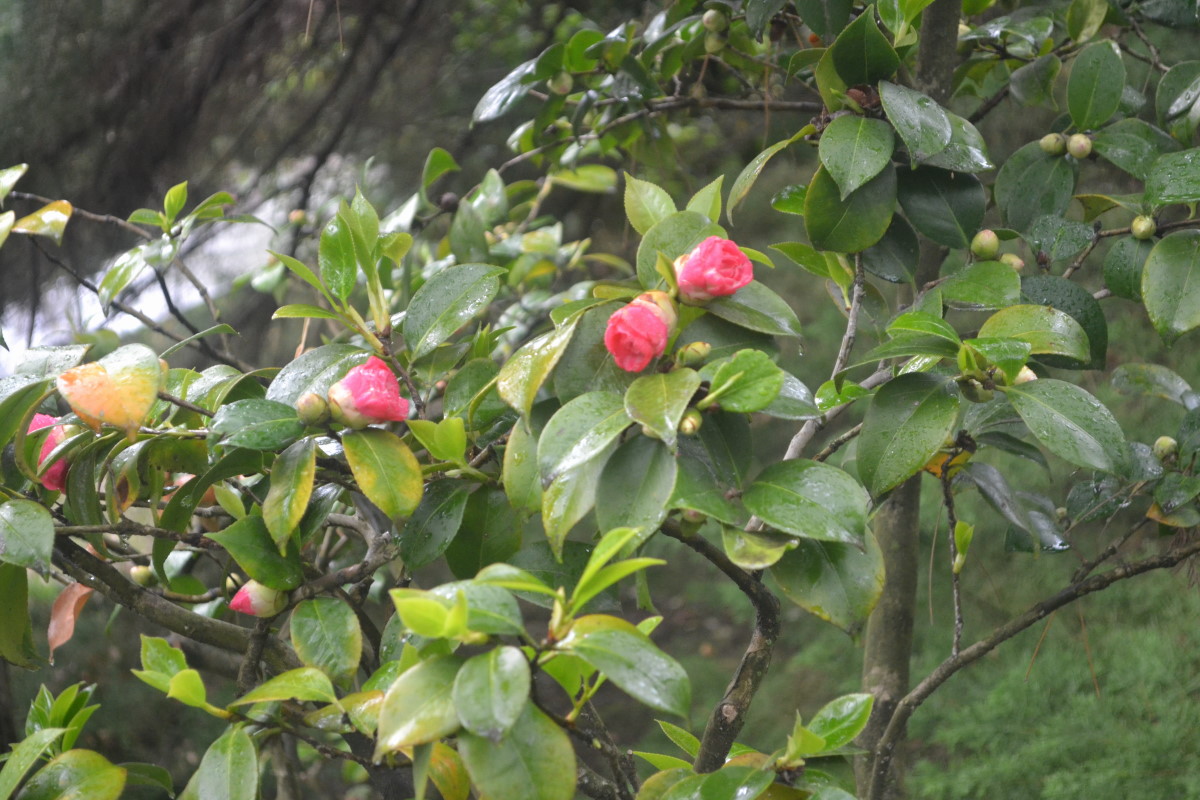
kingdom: Plantae
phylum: Tracheophyta
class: Magnoliopsida
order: Ranunculales
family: Berberidaceae
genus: Nandina
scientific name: Nandina domestica
